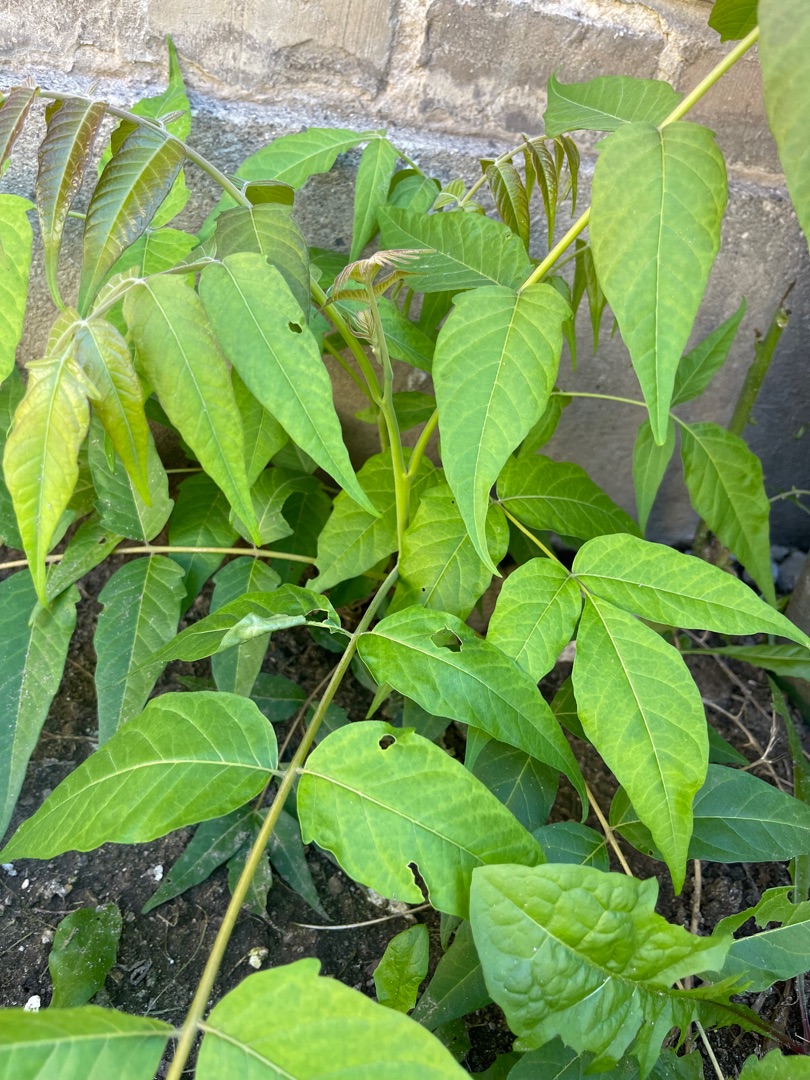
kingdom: Plantae
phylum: Tracheophyta
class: Magnoliopsida
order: Sapindales
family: Simaroubaceae
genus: Ailanthus
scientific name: Ailanthus altissima
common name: Skyrækker
